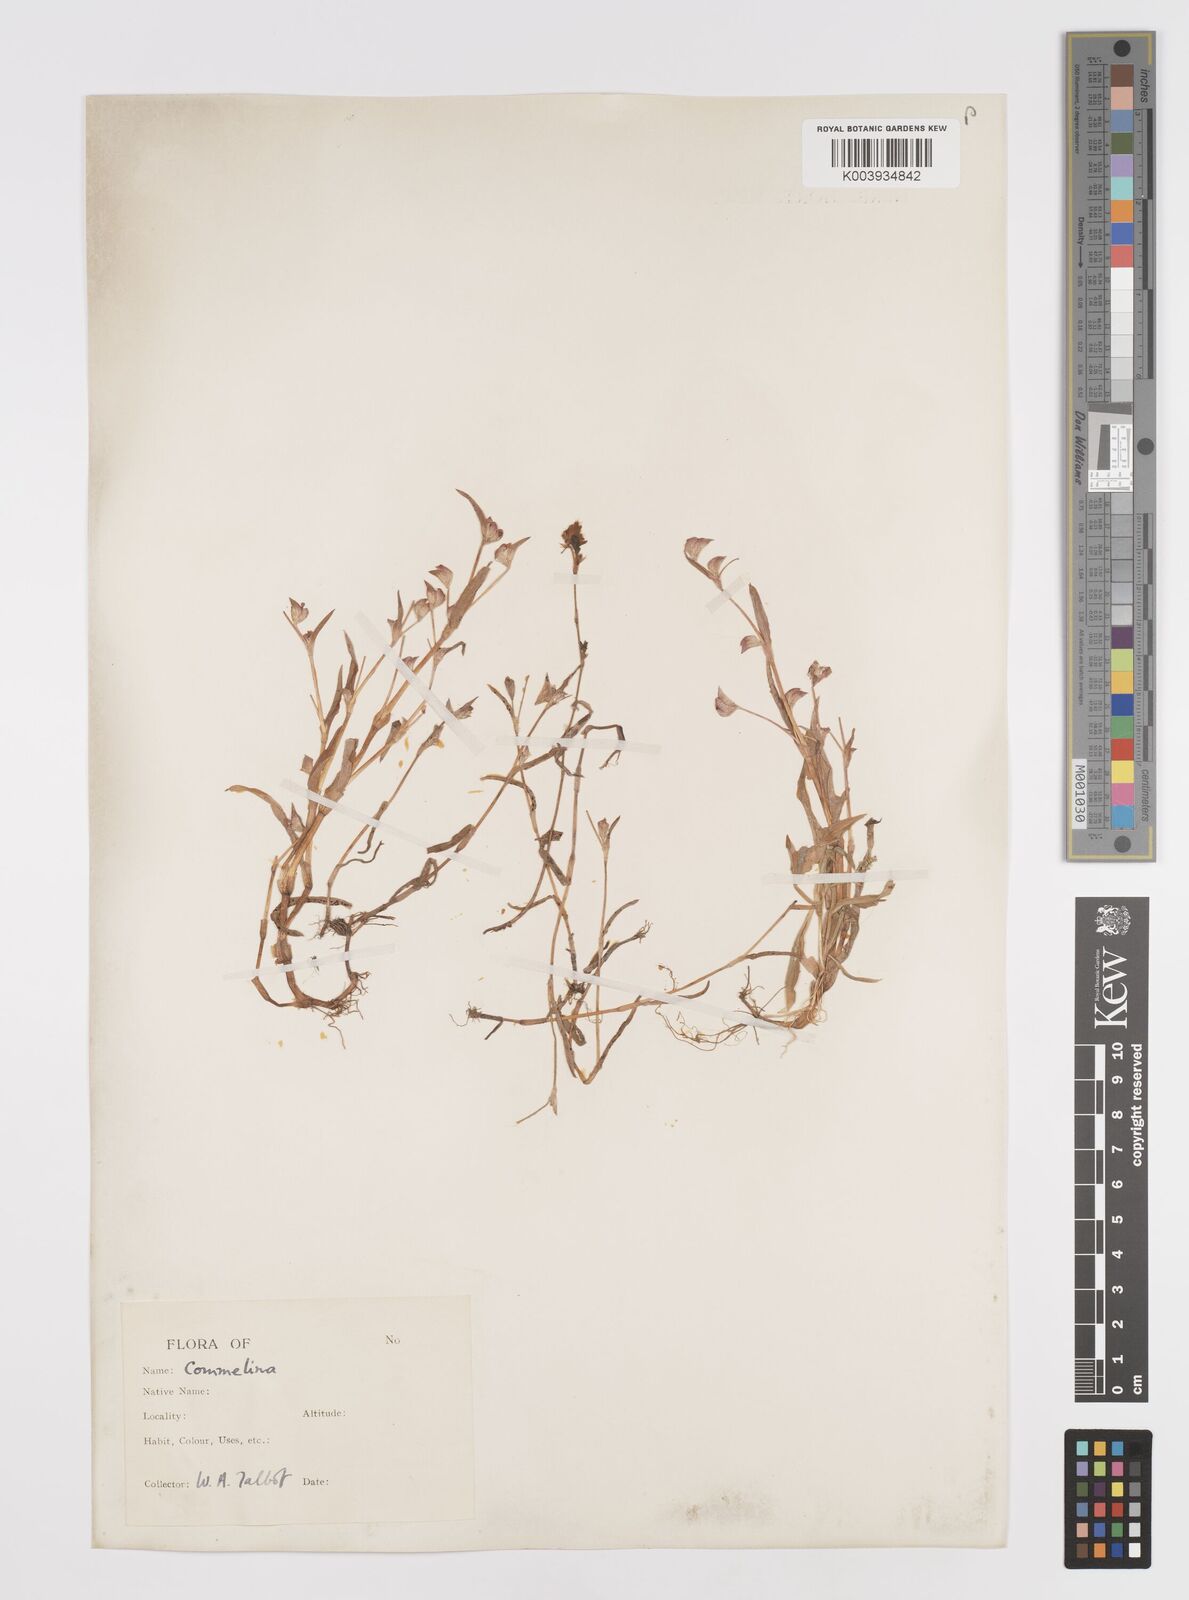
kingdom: Plantae
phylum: Tracheophyta
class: Liliopsida
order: Commelinales
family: Commelinaceae
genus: Cyanotis
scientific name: Cyanotis
